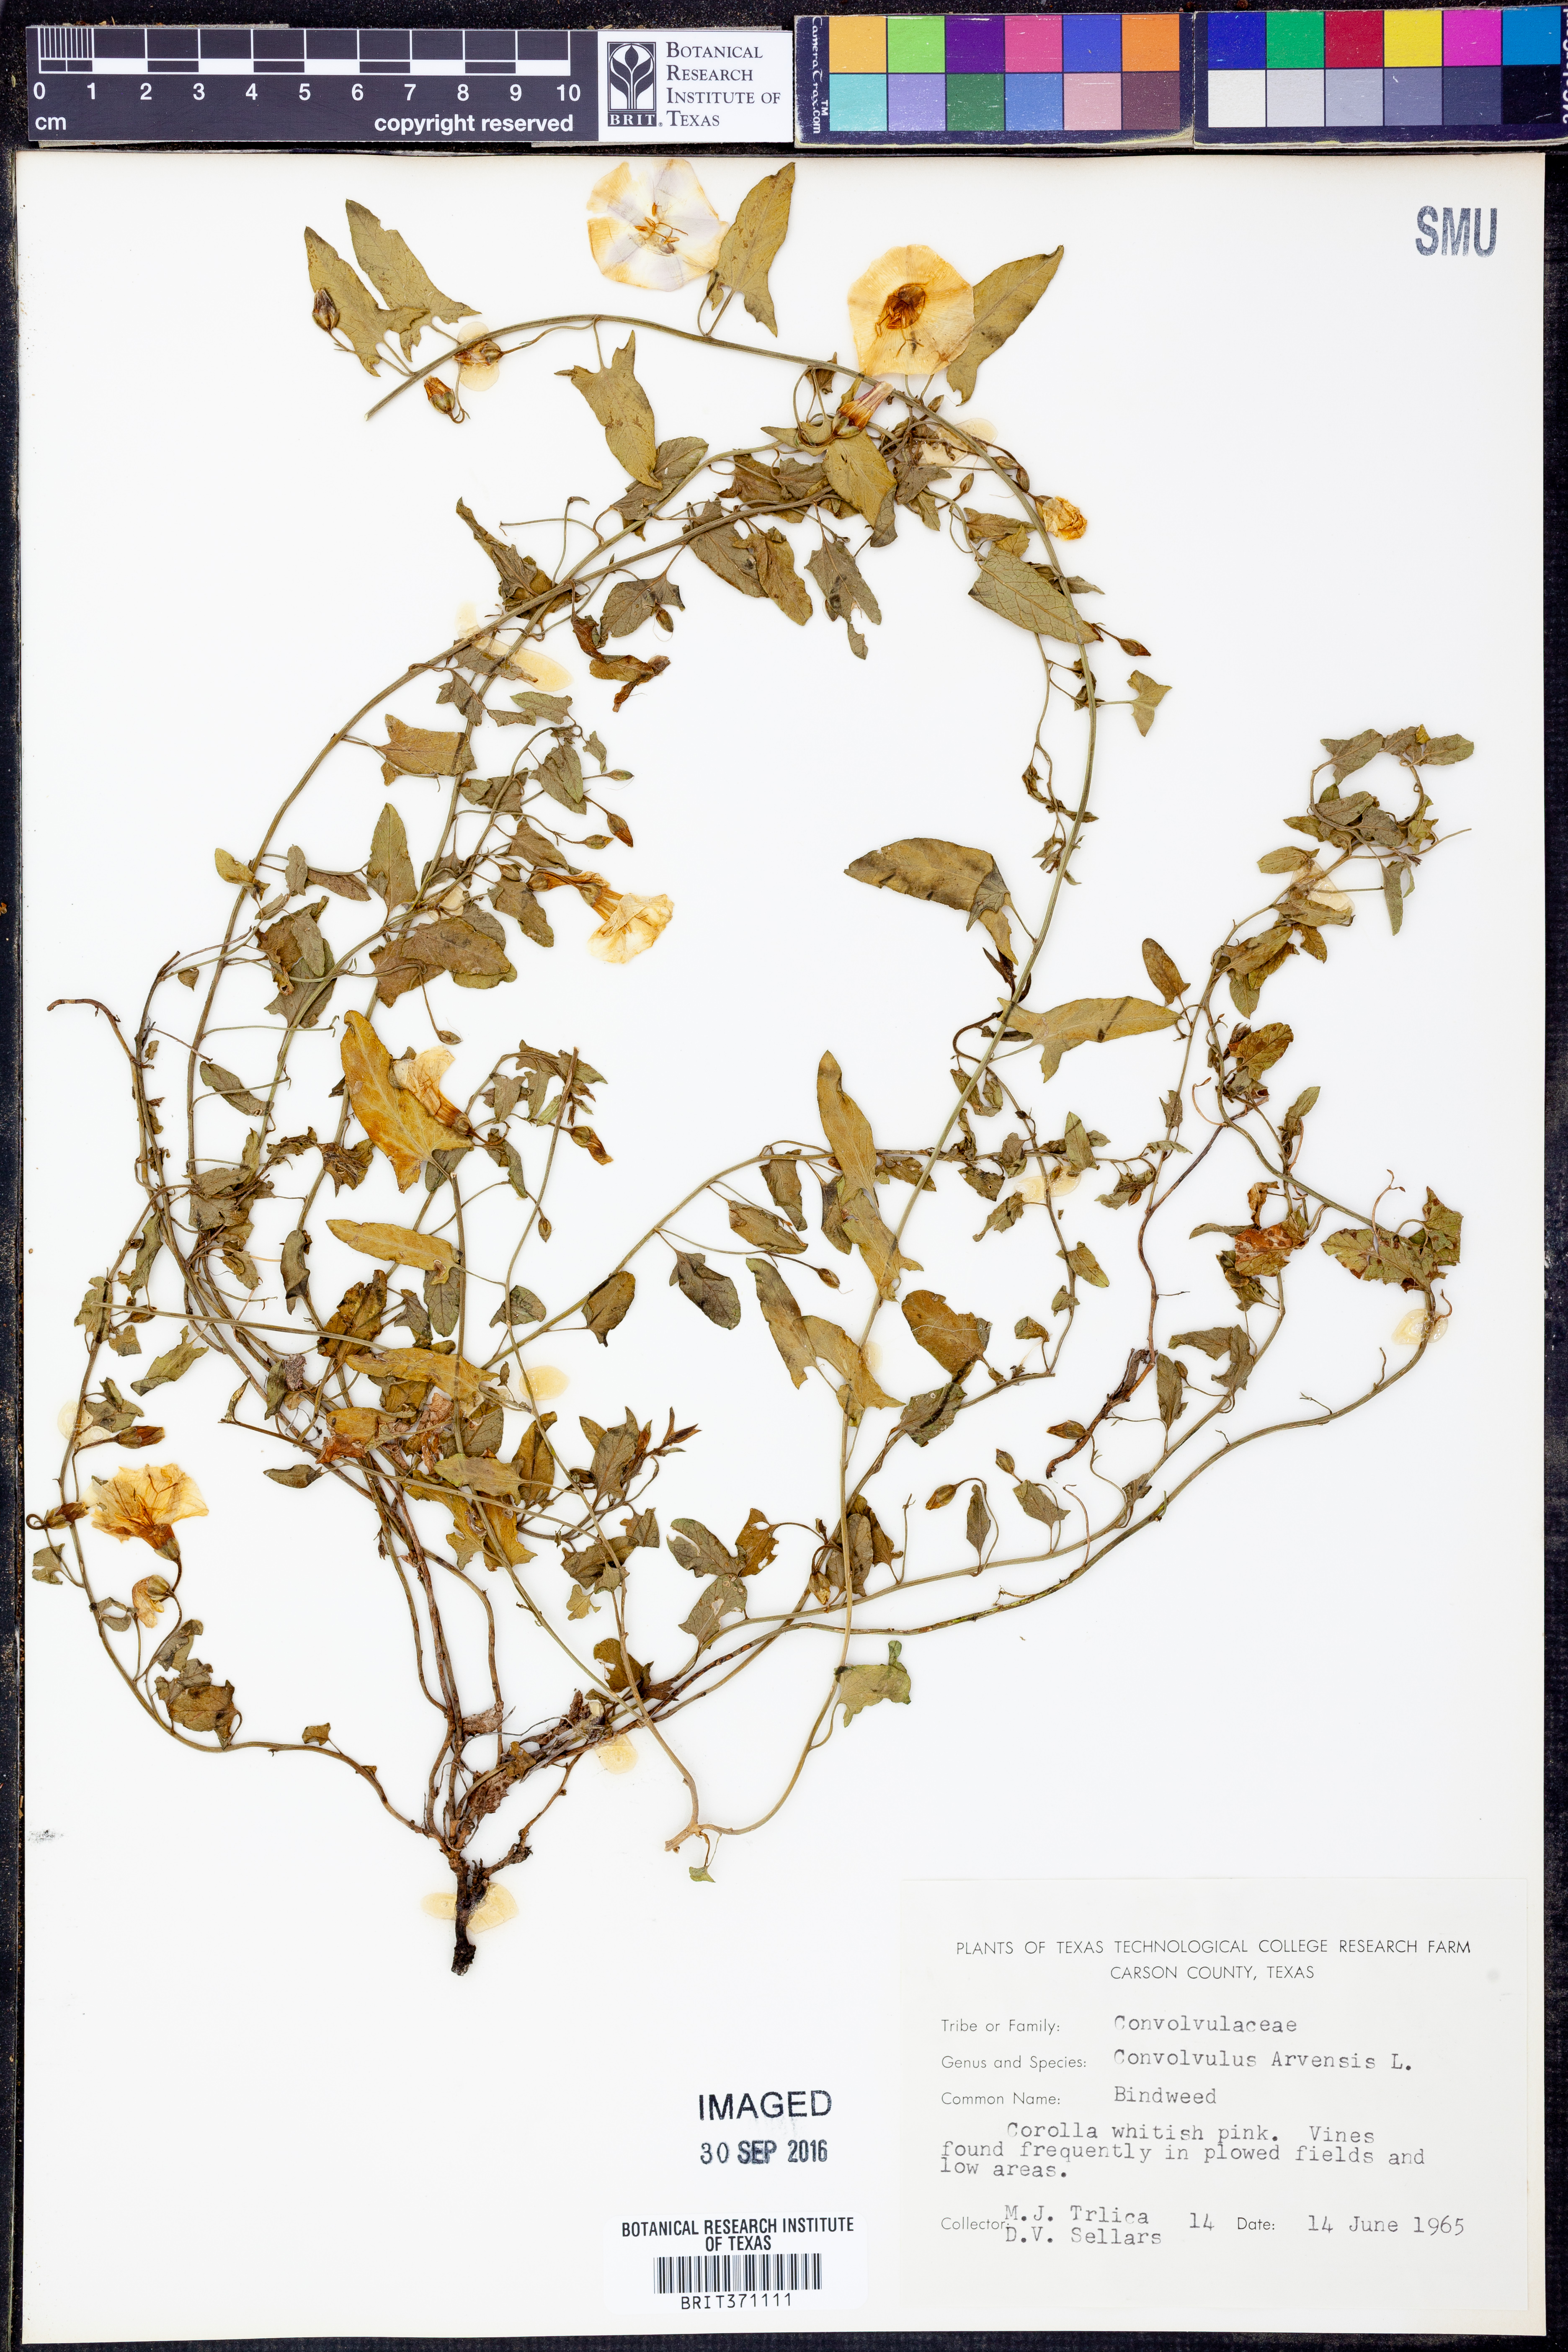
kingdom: Plantae
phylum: Tracheophyta
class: Magnoliopsida
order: Solanales
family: Convolvulaceae
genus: Convolvulus
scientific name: Convolvulus arvensis
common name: Field bindweed
